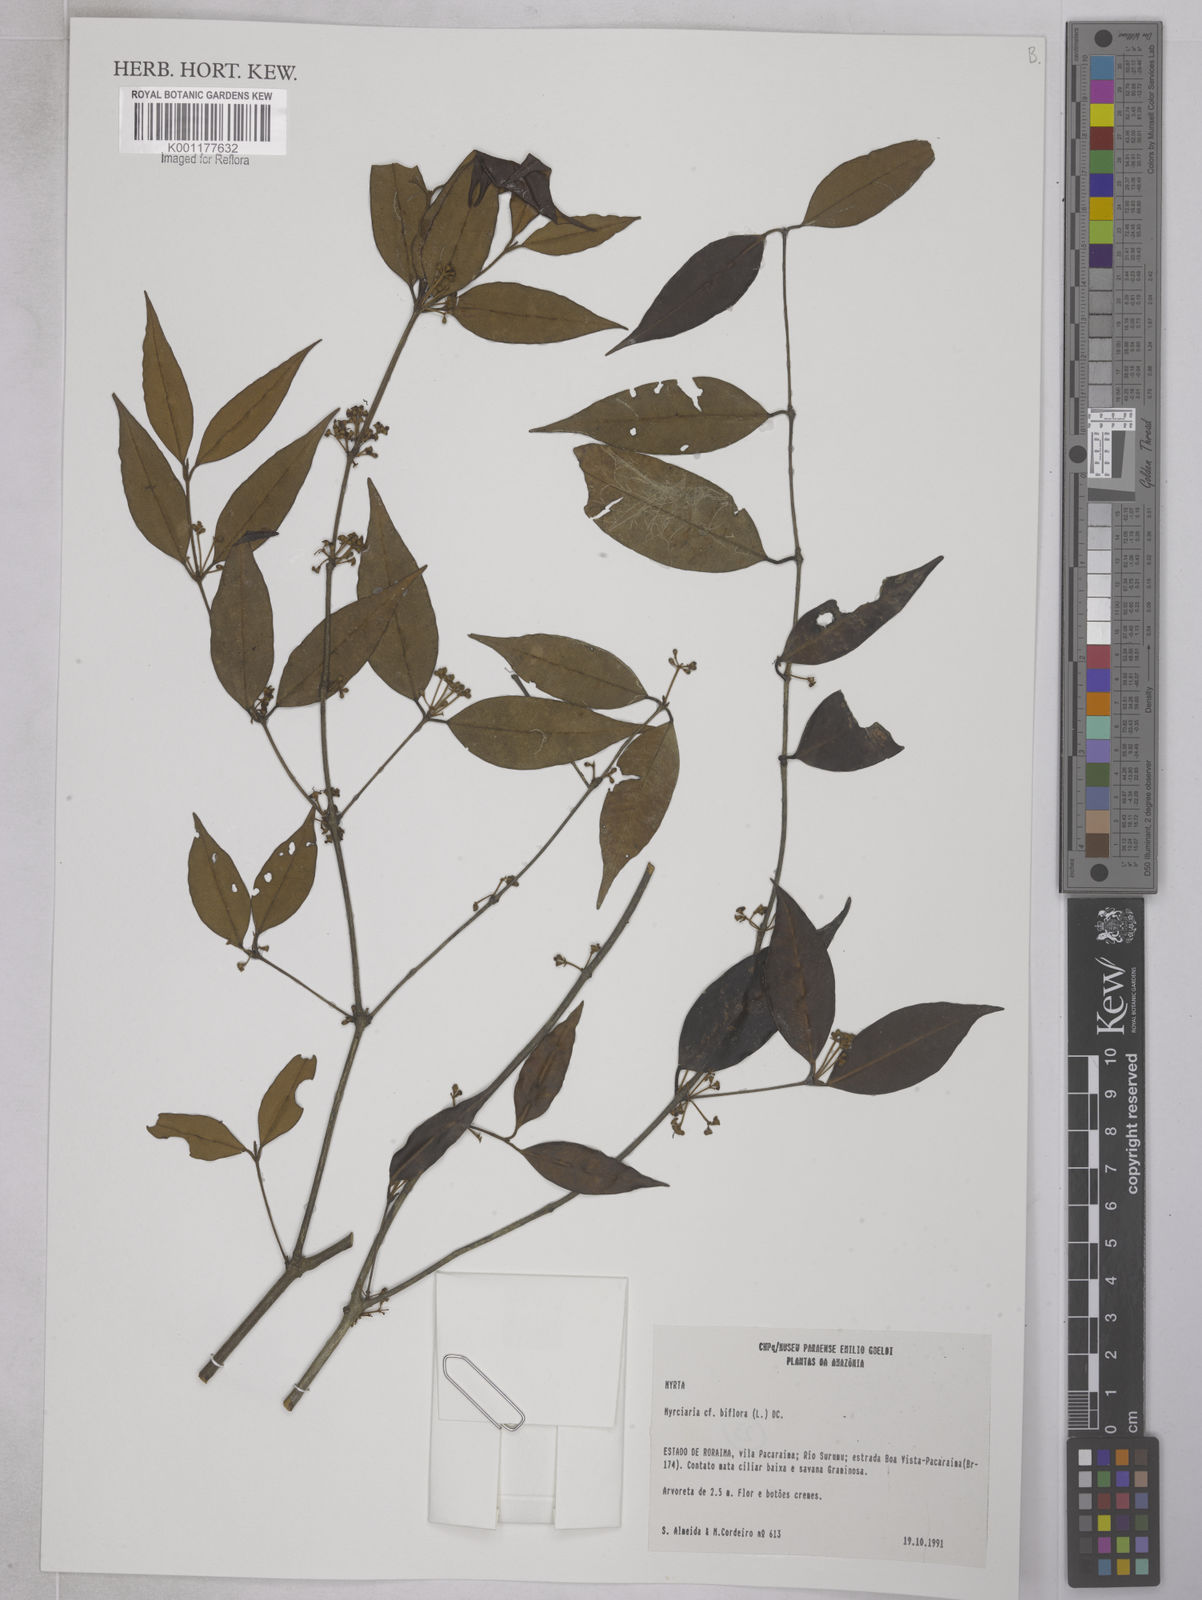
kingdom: Plantae
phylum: Tracheophyta
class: Magnoliopsida
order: Myrtales
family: Myrtaceae
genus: Myrcia
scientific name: Myrcia
